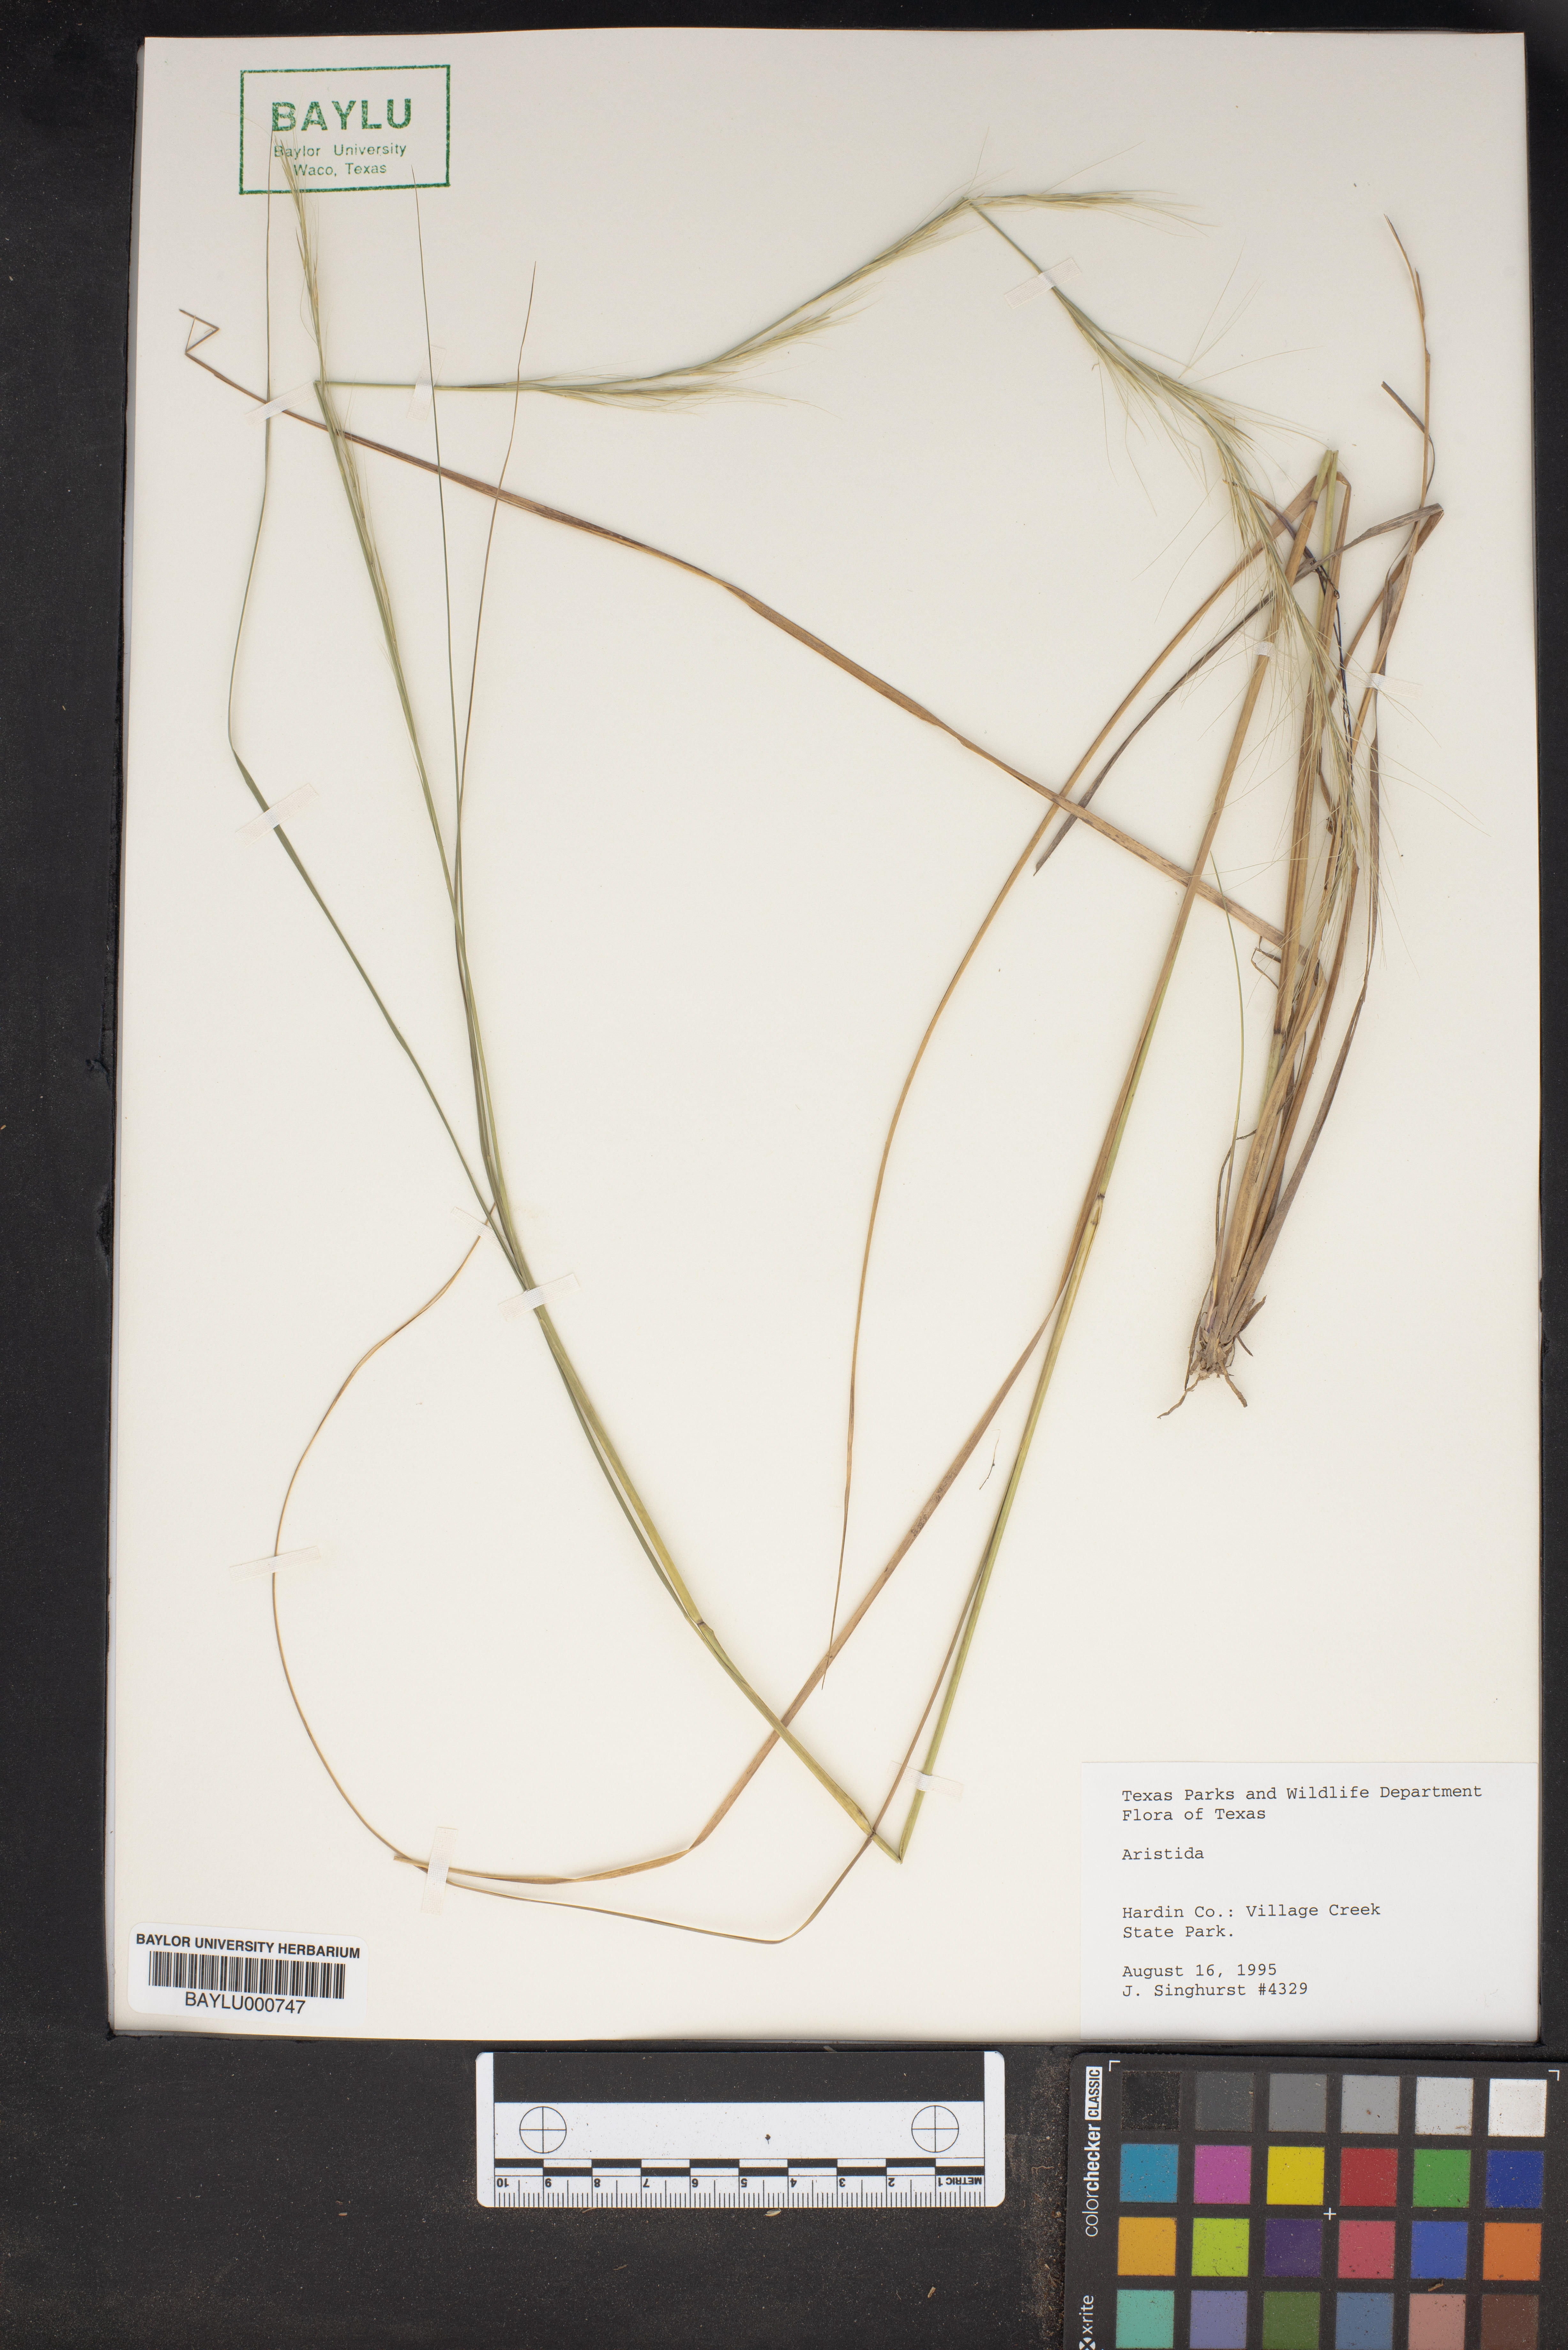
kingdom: Plantae
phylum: Tracheophyta
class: Liliopsida
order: Poales
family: Poaceae
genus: Aristida
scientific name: Aristida
